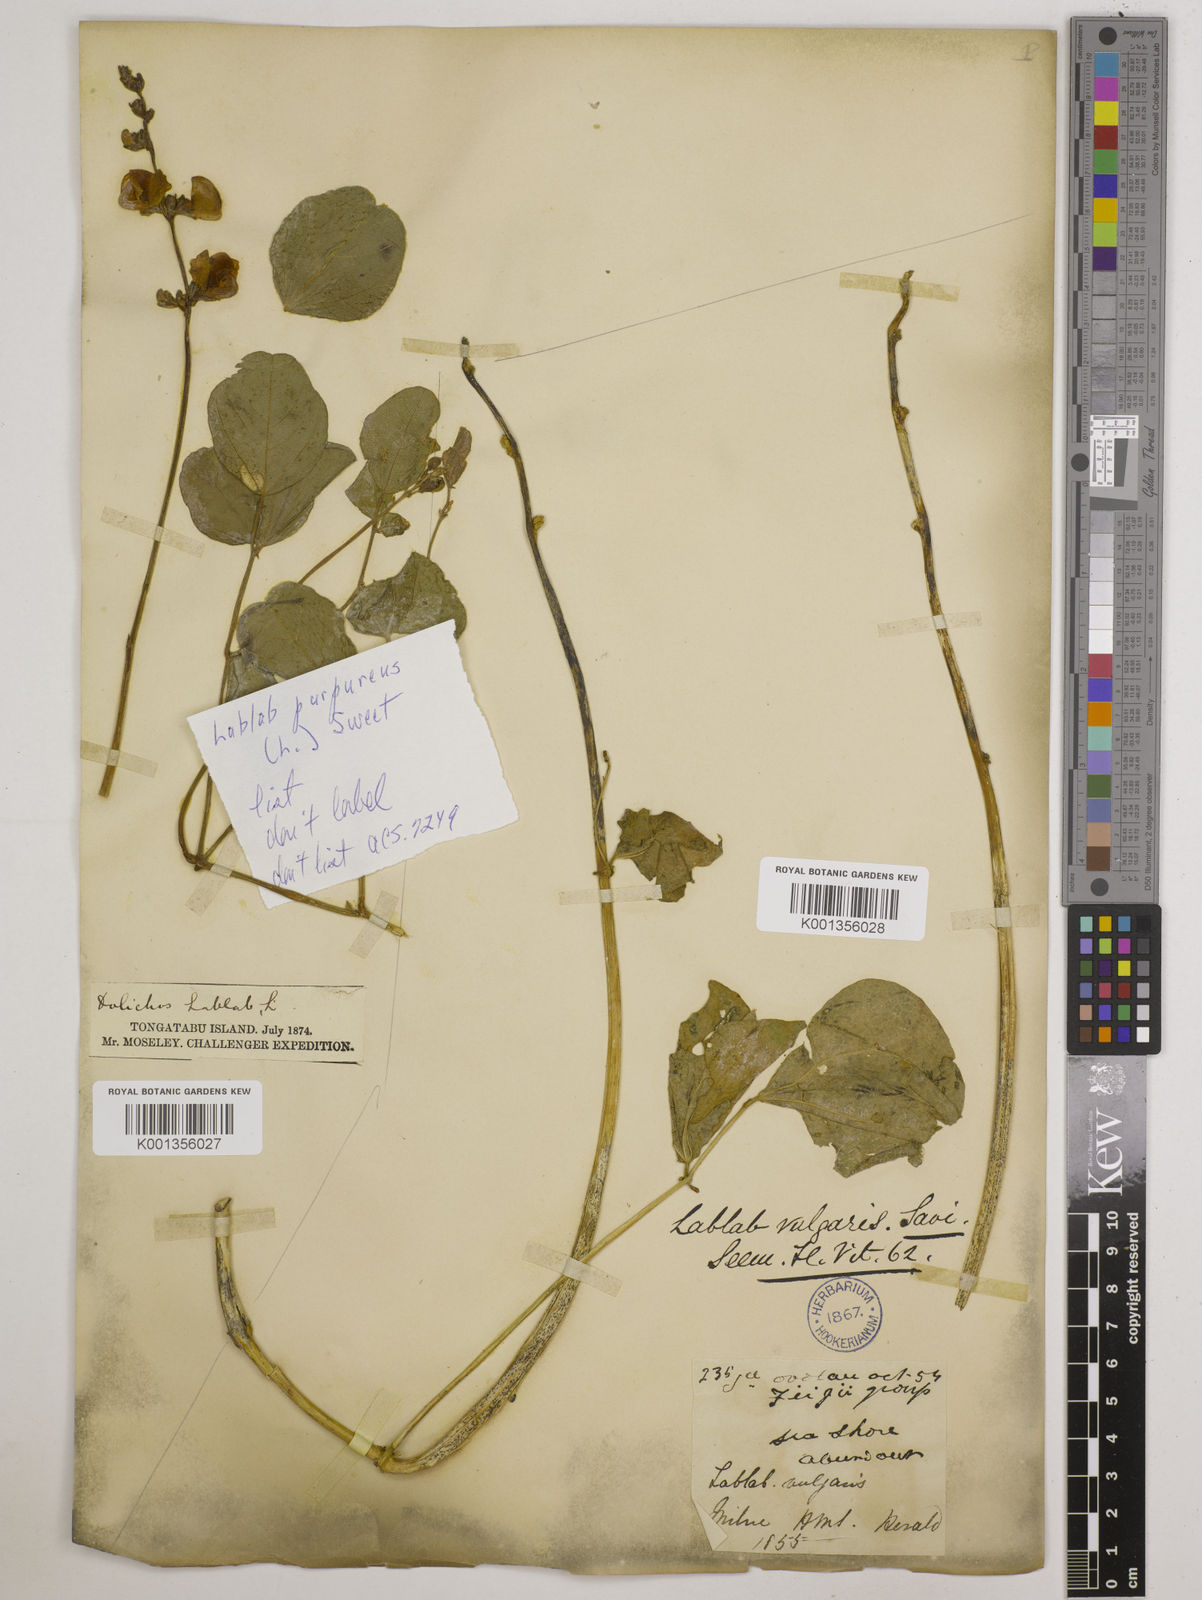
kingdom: Plantae
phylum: Tracheophyta
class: Magnoliopsida
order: Fabales
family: Fabaceae
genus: Lablab
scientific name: Lablab purpureus
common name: Lablab-bean
